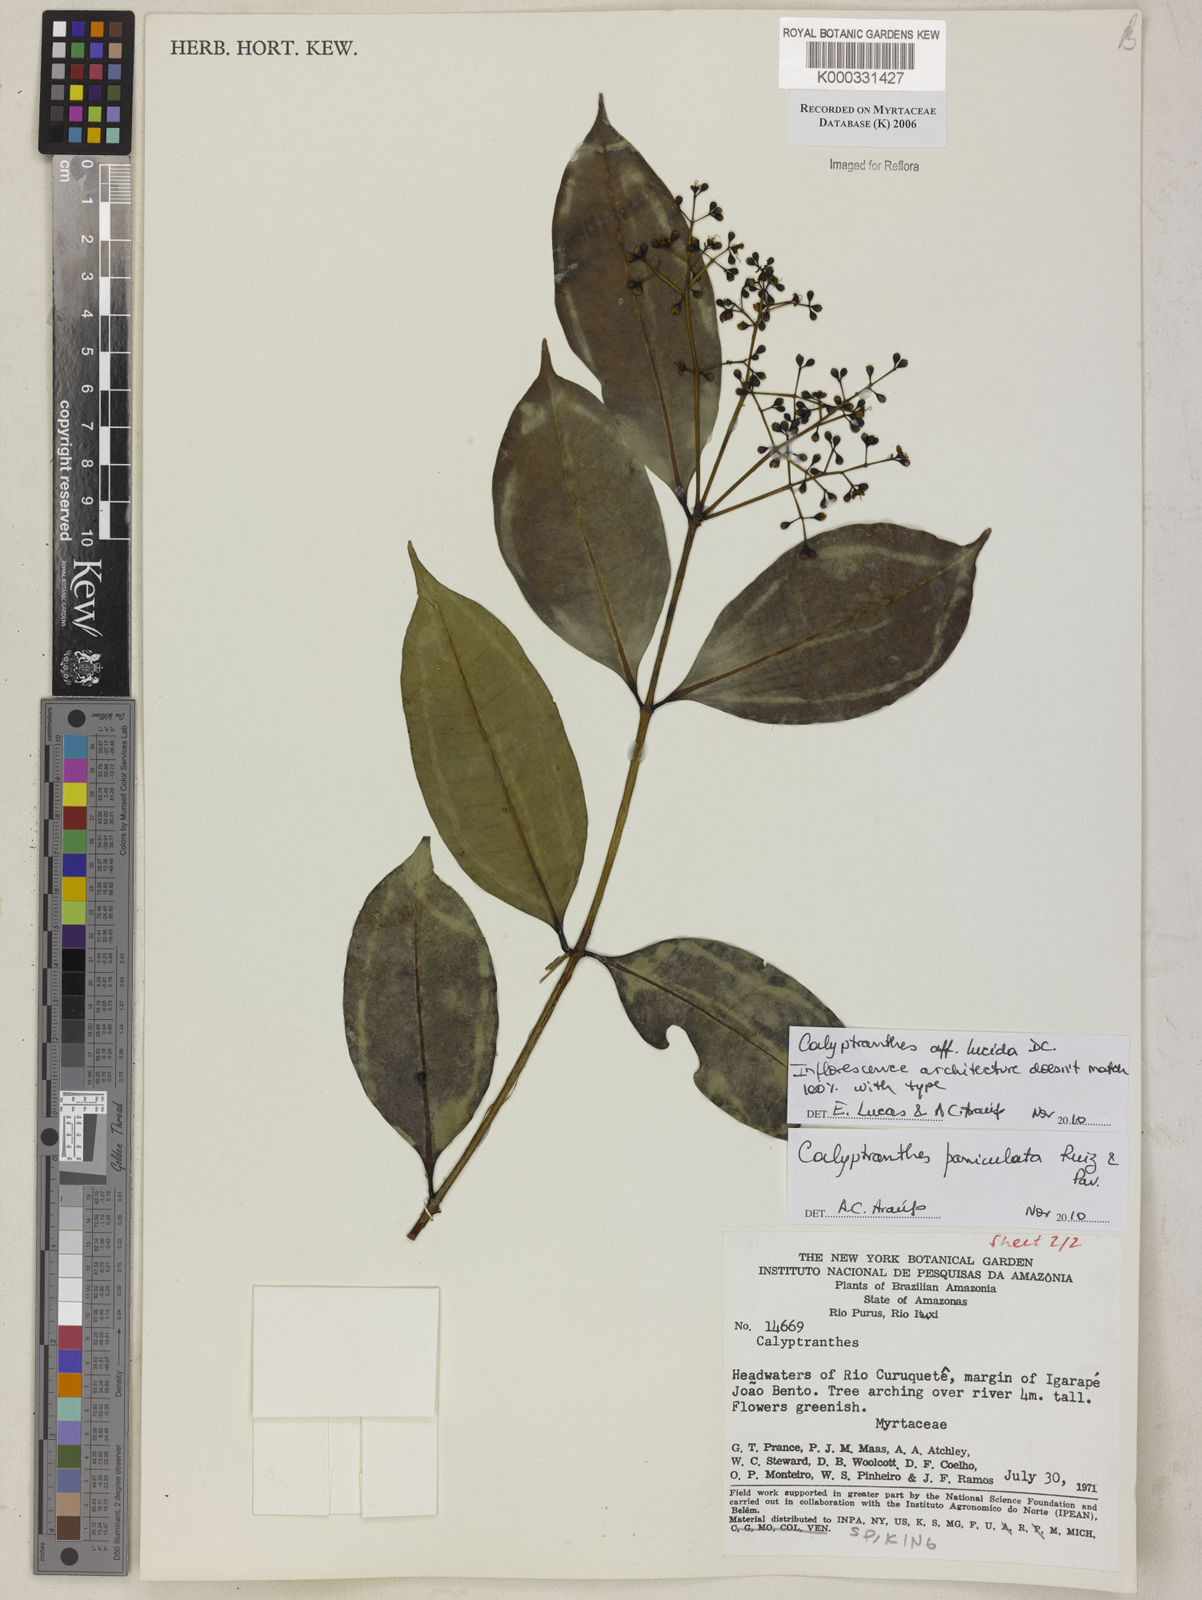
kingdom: Plantae
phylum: Tracheophyta
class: Magnoliopsida
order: Myrtales
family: Myrtaceae
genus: Calyptranthes
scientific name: Calyptranthes
